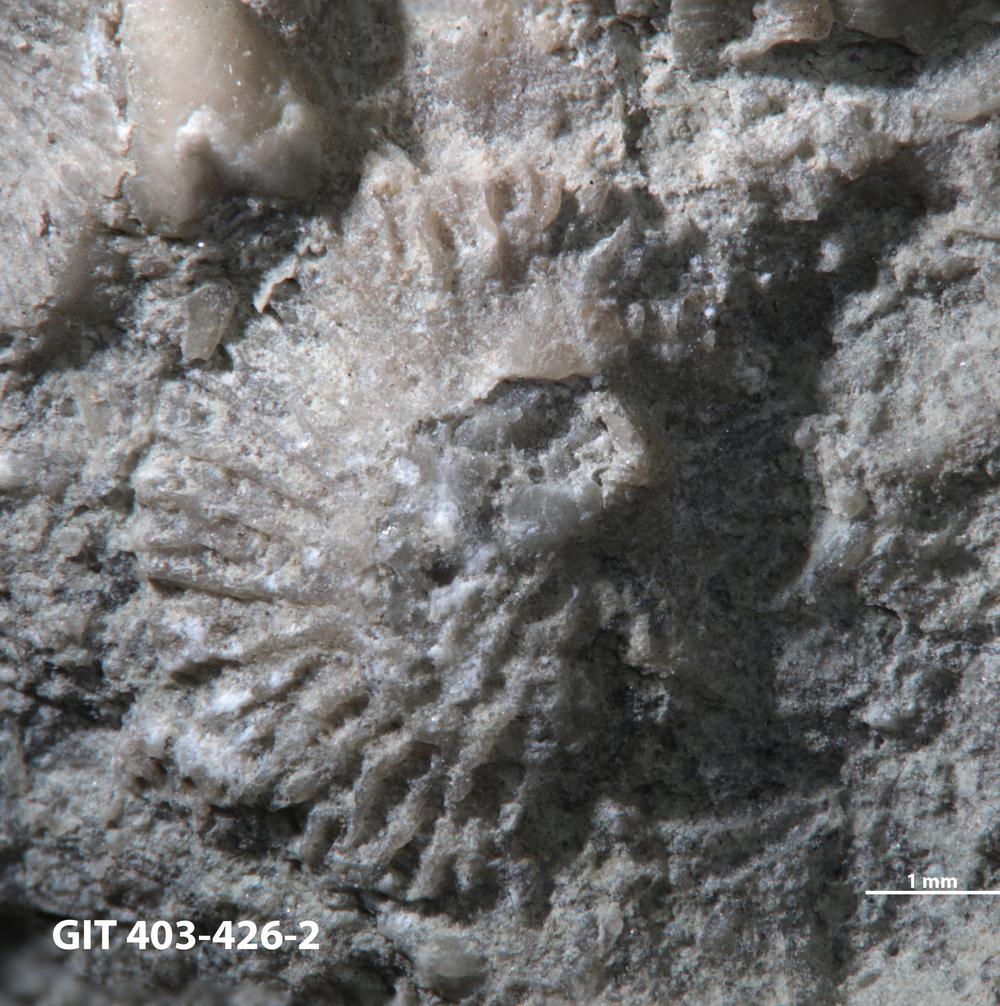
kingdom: Animalia
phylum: Brachiopoda
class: Craniata
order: Craniida
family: Craniidae
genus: Philhedra
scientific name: Philhedra
